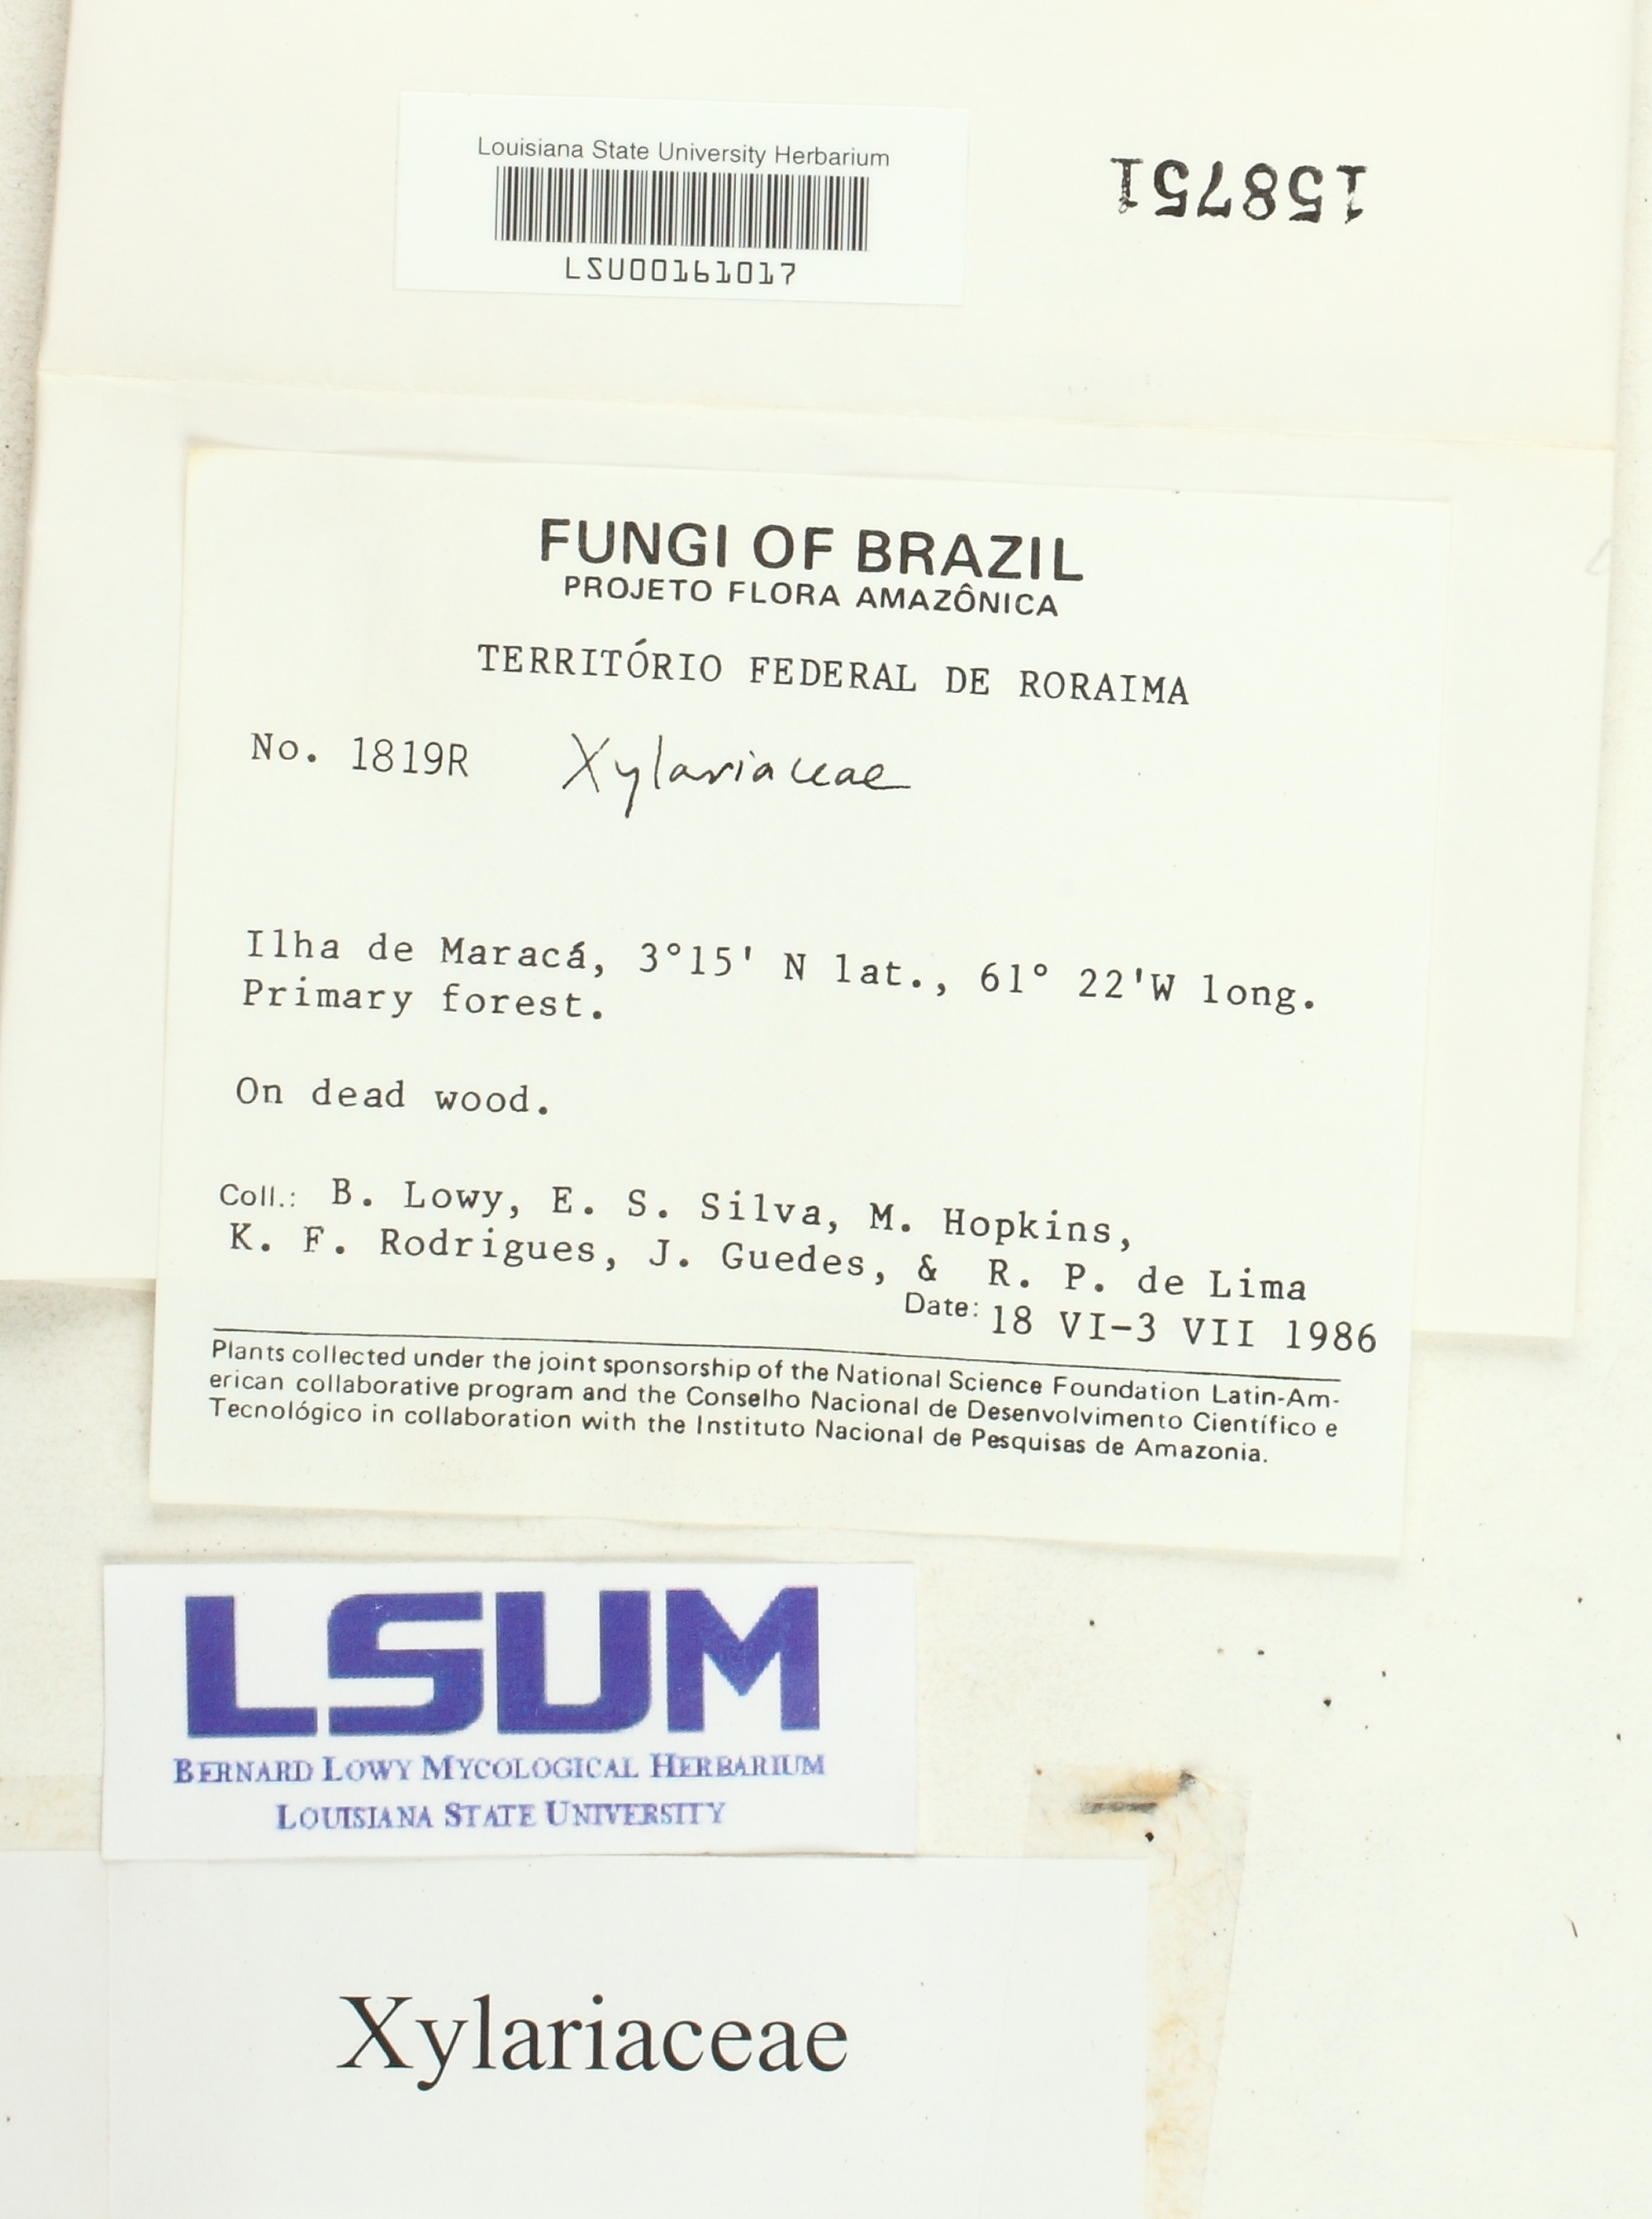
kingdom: Fungi
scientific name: Fungi
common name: Fungi
